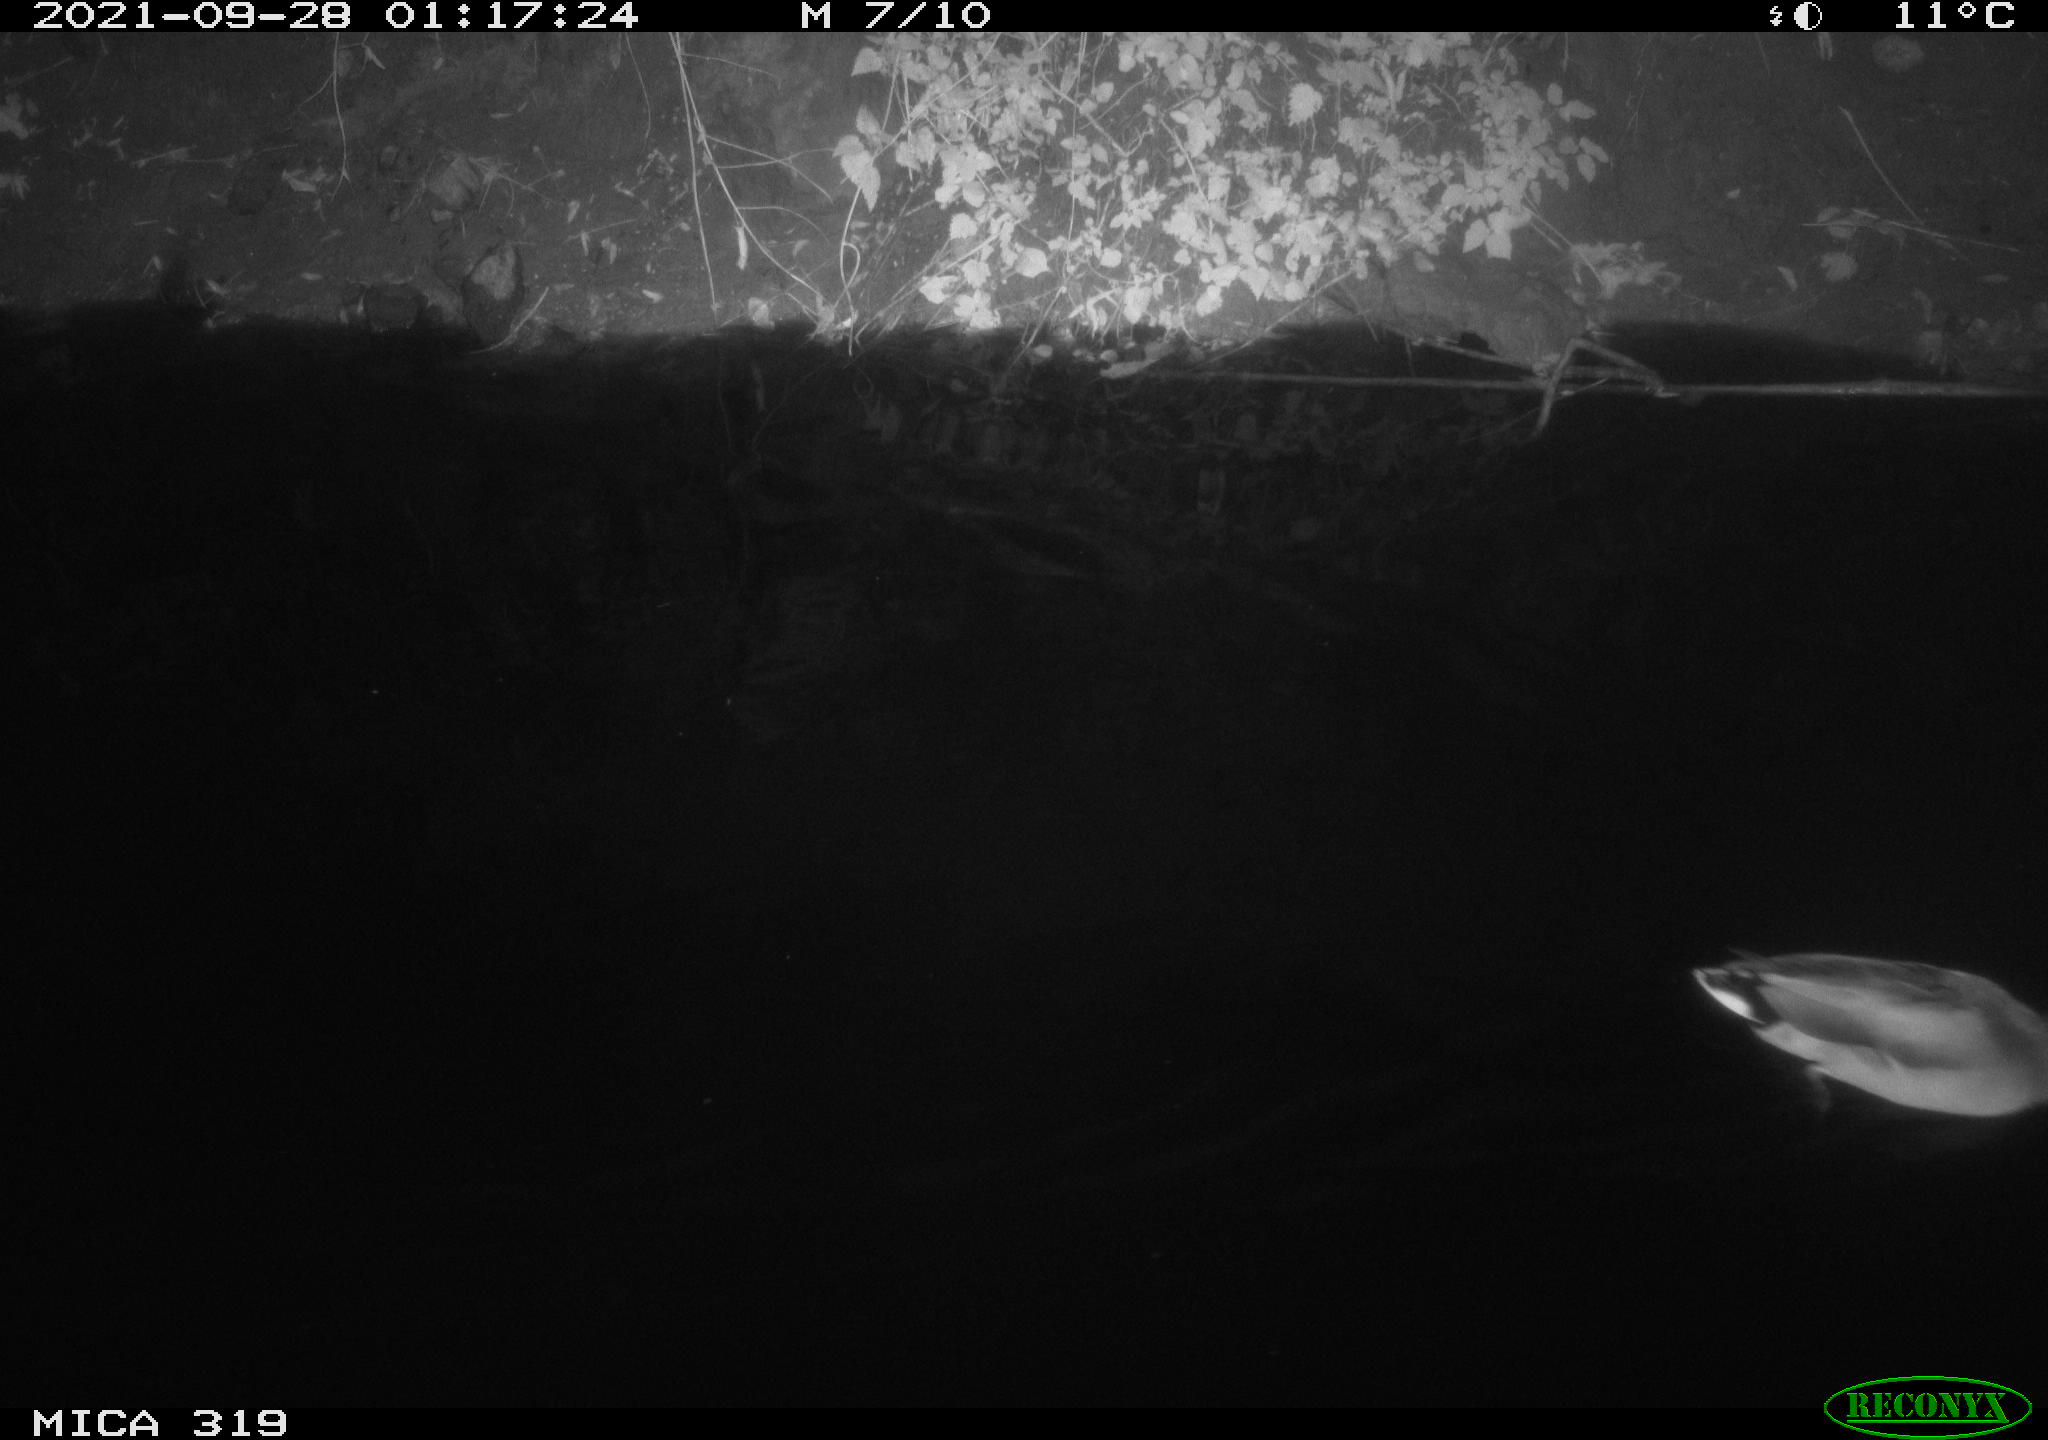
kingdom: Animalia
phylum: Chordata
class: Aves
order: Anseriformes
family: Anatidae
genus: Anas
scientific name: Anas platyrhynchos
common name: Mallard
